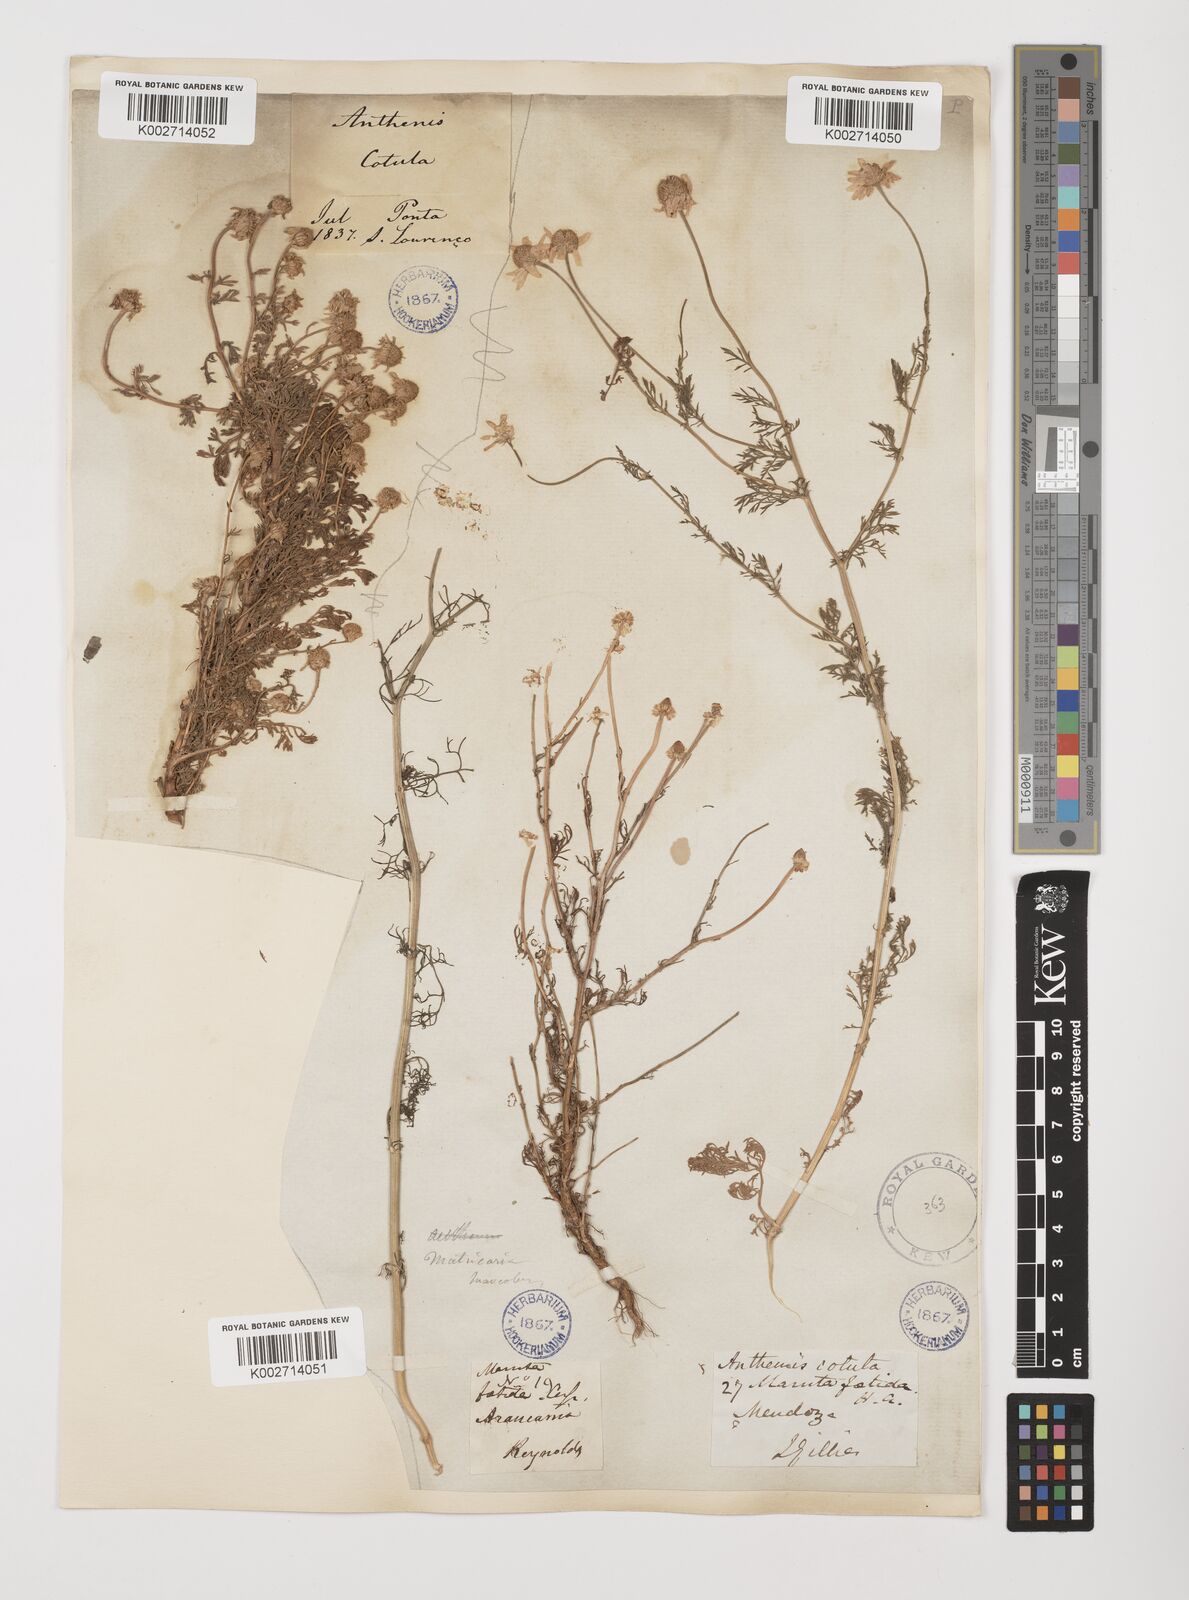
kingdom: Plantae
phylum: Tracheophyta
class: Magnoliopsida
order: Asterales
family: Asteraceae
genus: Anthemis
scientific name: Anthemis cotula
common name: Stinking chamomile
